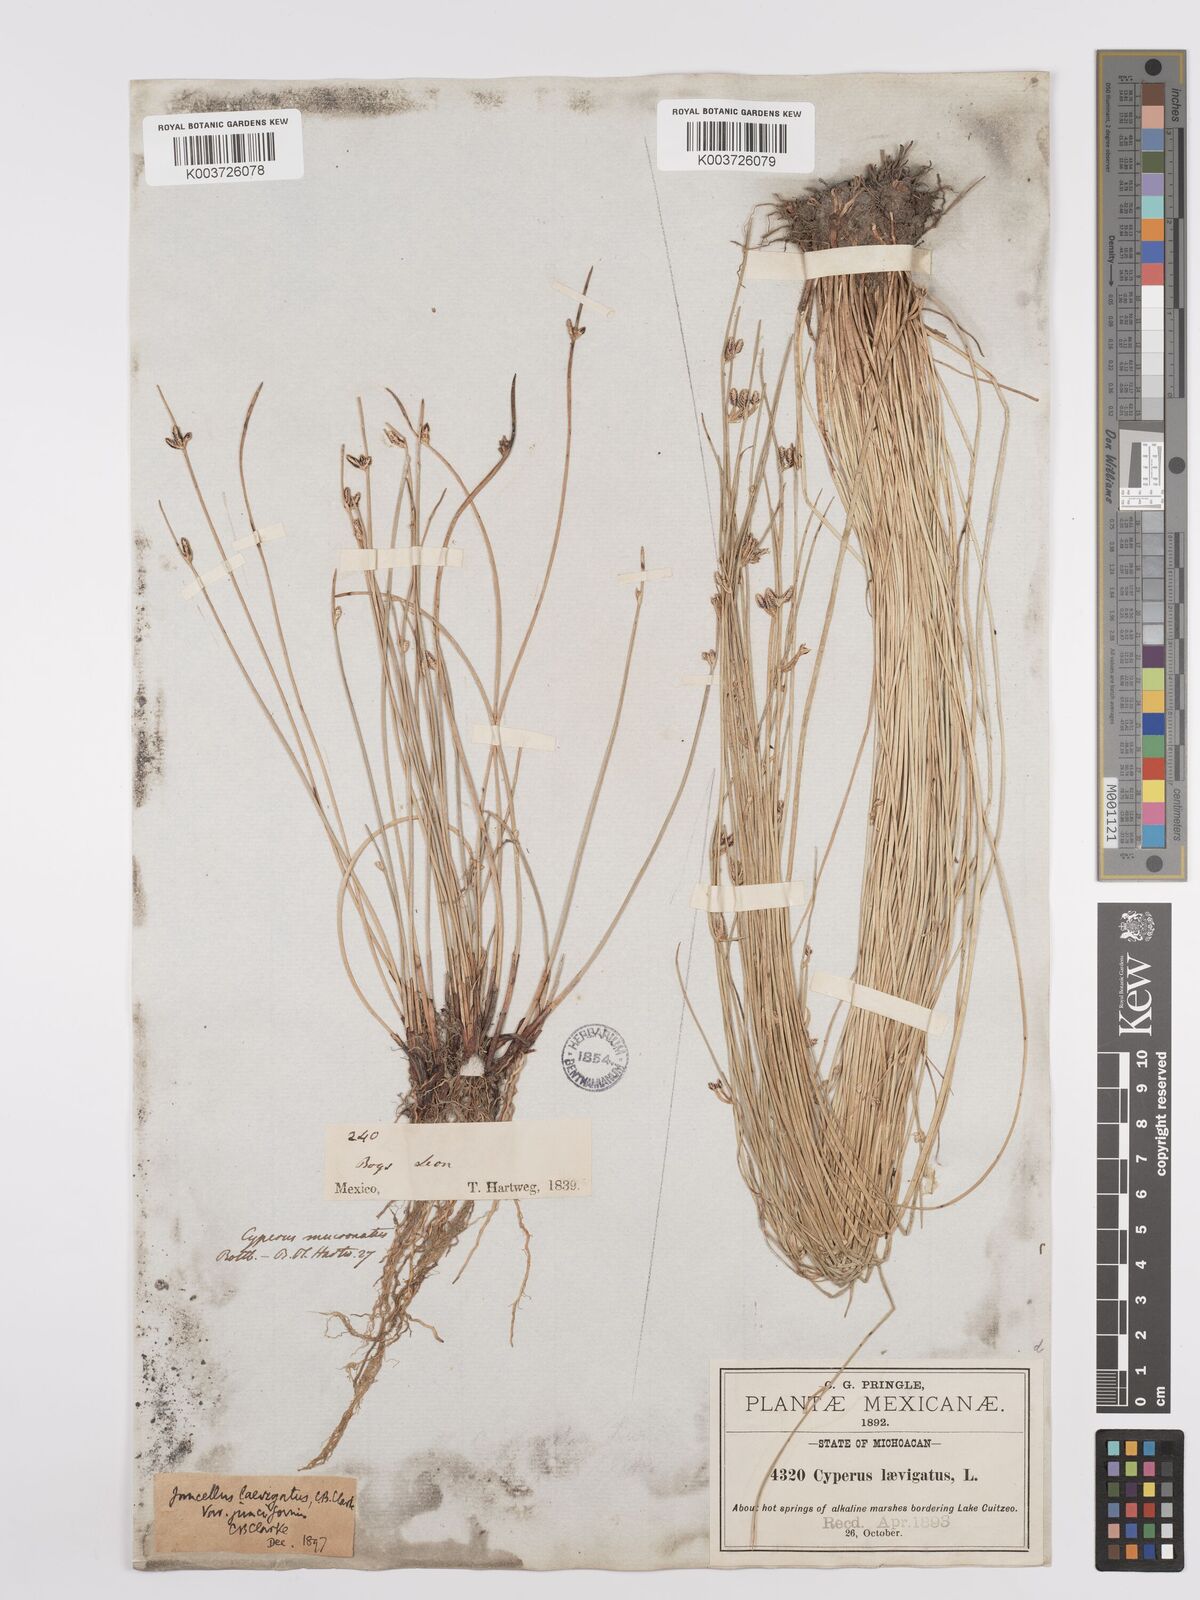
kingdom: Plantae
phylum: Tracheophyta
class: Liliopsida
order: Poales
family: Cyperaceae
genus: Cyperus
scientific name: Cyperus laevigatus
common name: Smooth flat sedge
